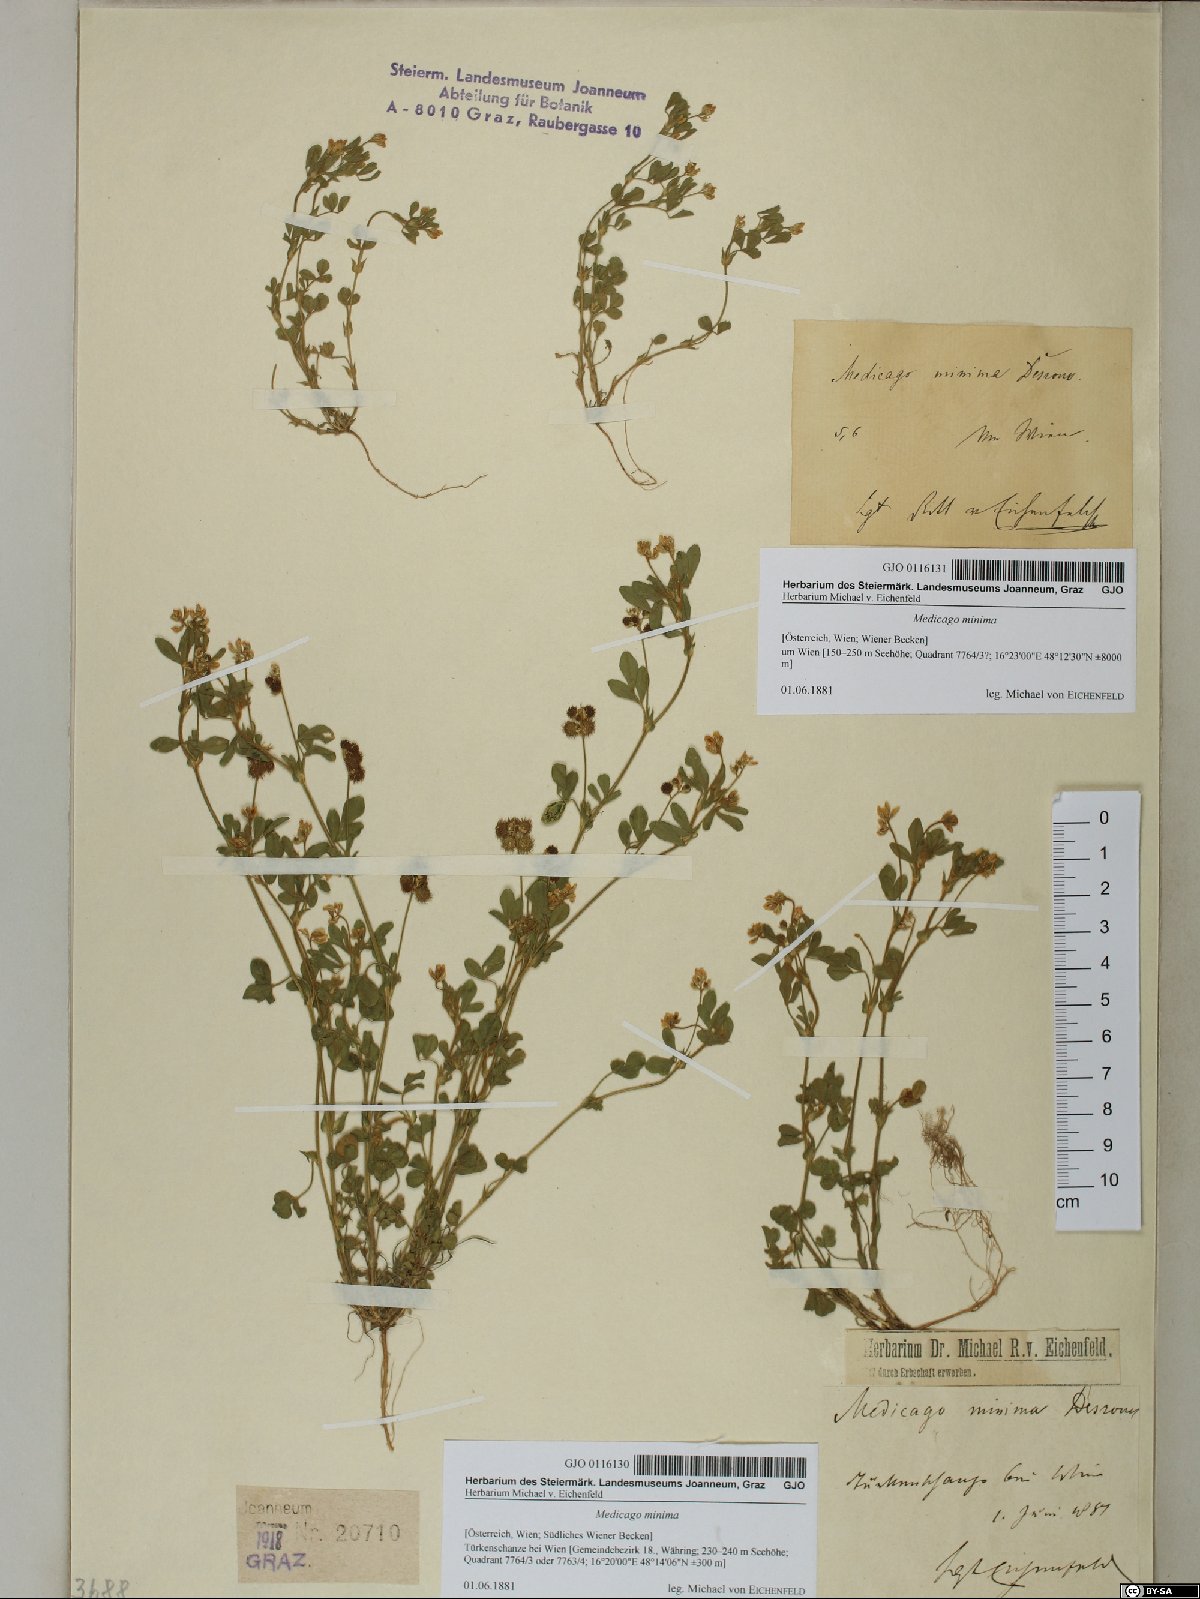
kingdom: Plantae
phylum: Tracheophyta
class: Magnoliopsida
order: Fabales
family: Fabaceae
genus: Medicago
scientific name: Medicago minima
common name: Little bur-clover
